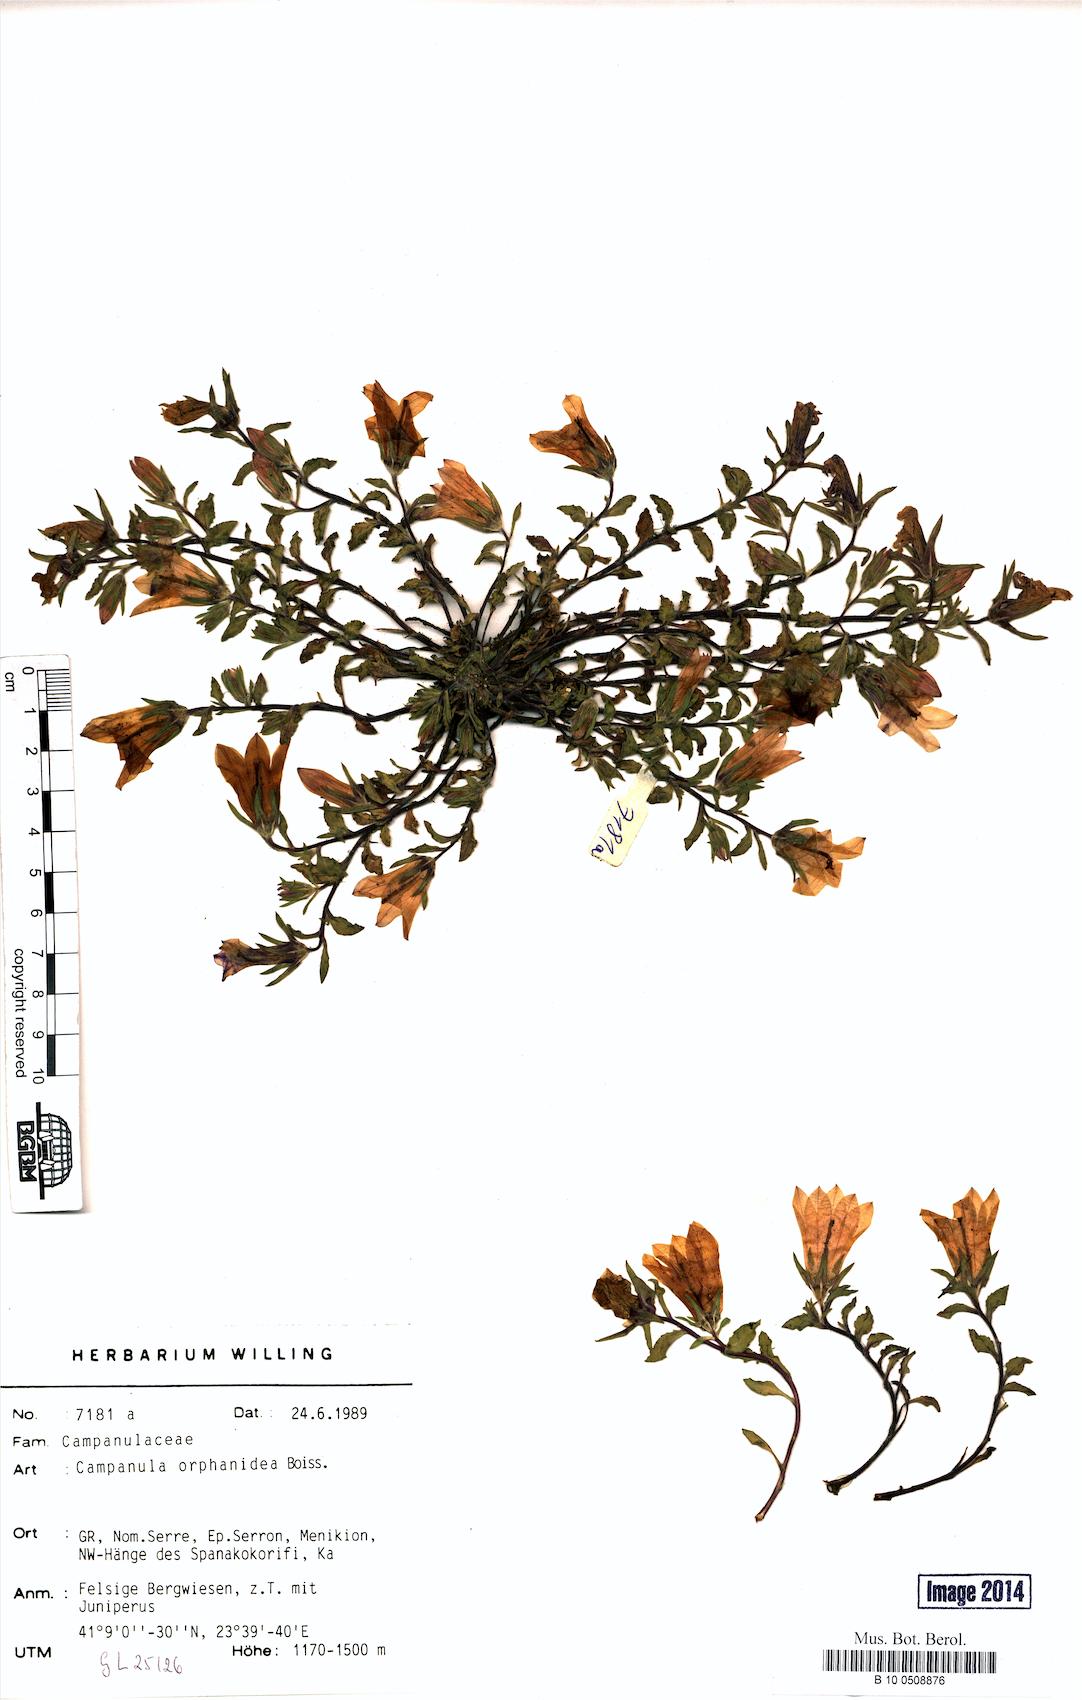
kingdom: Plantae
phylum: Tracheophyta
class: Magnoliopsida
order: Asterales
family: Campanulaceae
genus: Campanula
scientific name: Campanula orphanidea
